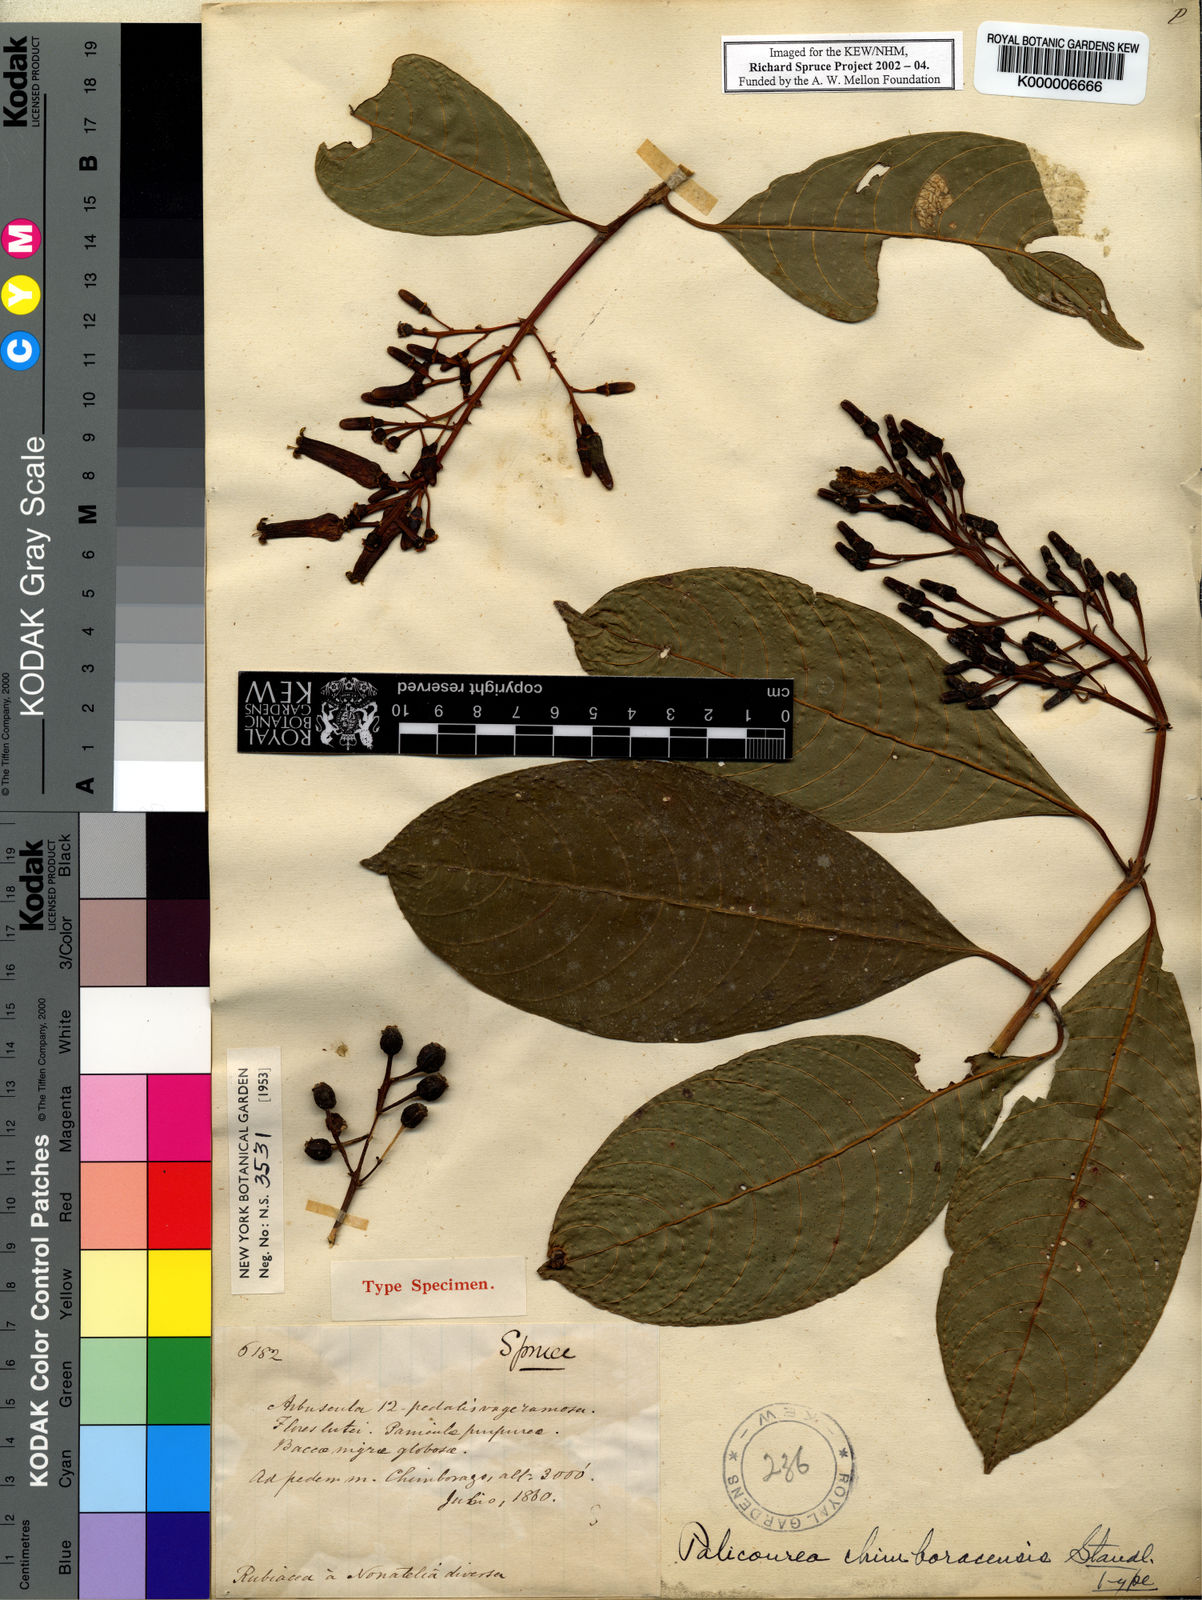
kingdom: Plantae
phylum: Tracheophyta
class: Magnoliopsida
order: Gentianales
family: Rubiaceae
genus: Palicourea
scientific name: Palicourea chimboracensis
